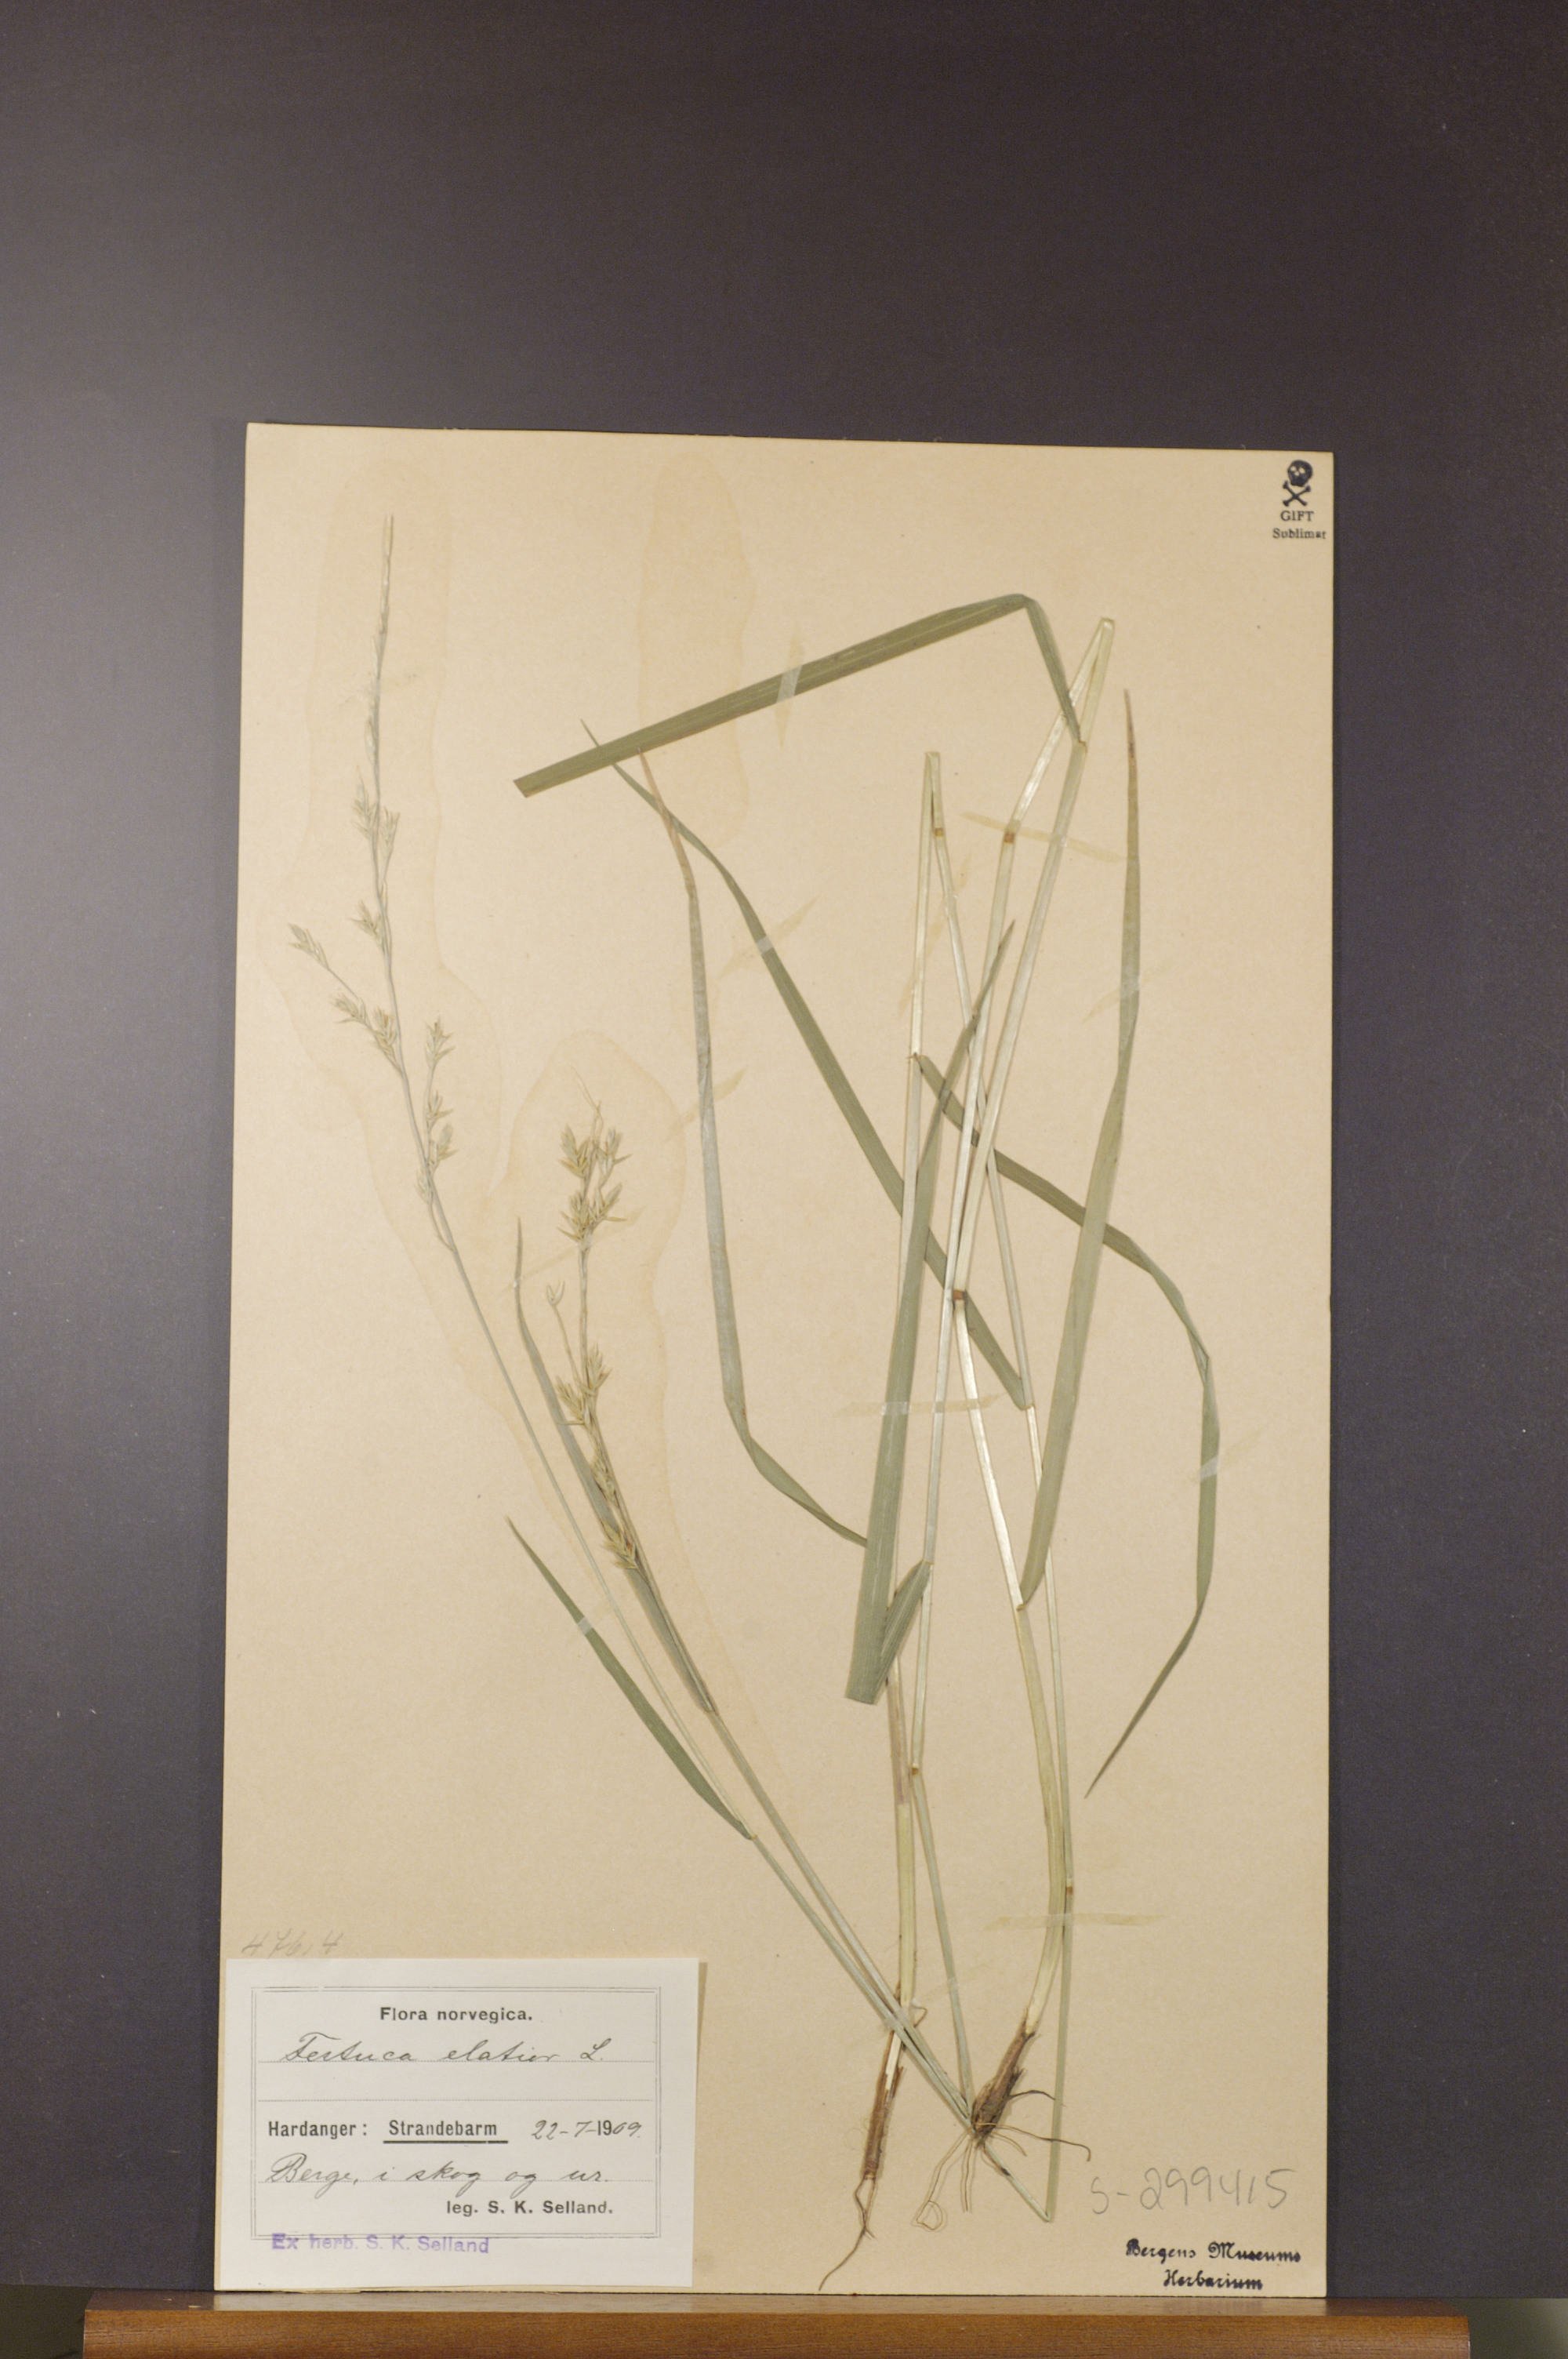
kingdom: Plantae
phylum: Tracheophyta
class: Liliopsida
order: Poales
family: Poaceae
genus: Lolium
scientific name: Lolium arundinaceum
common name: Reed fescue
